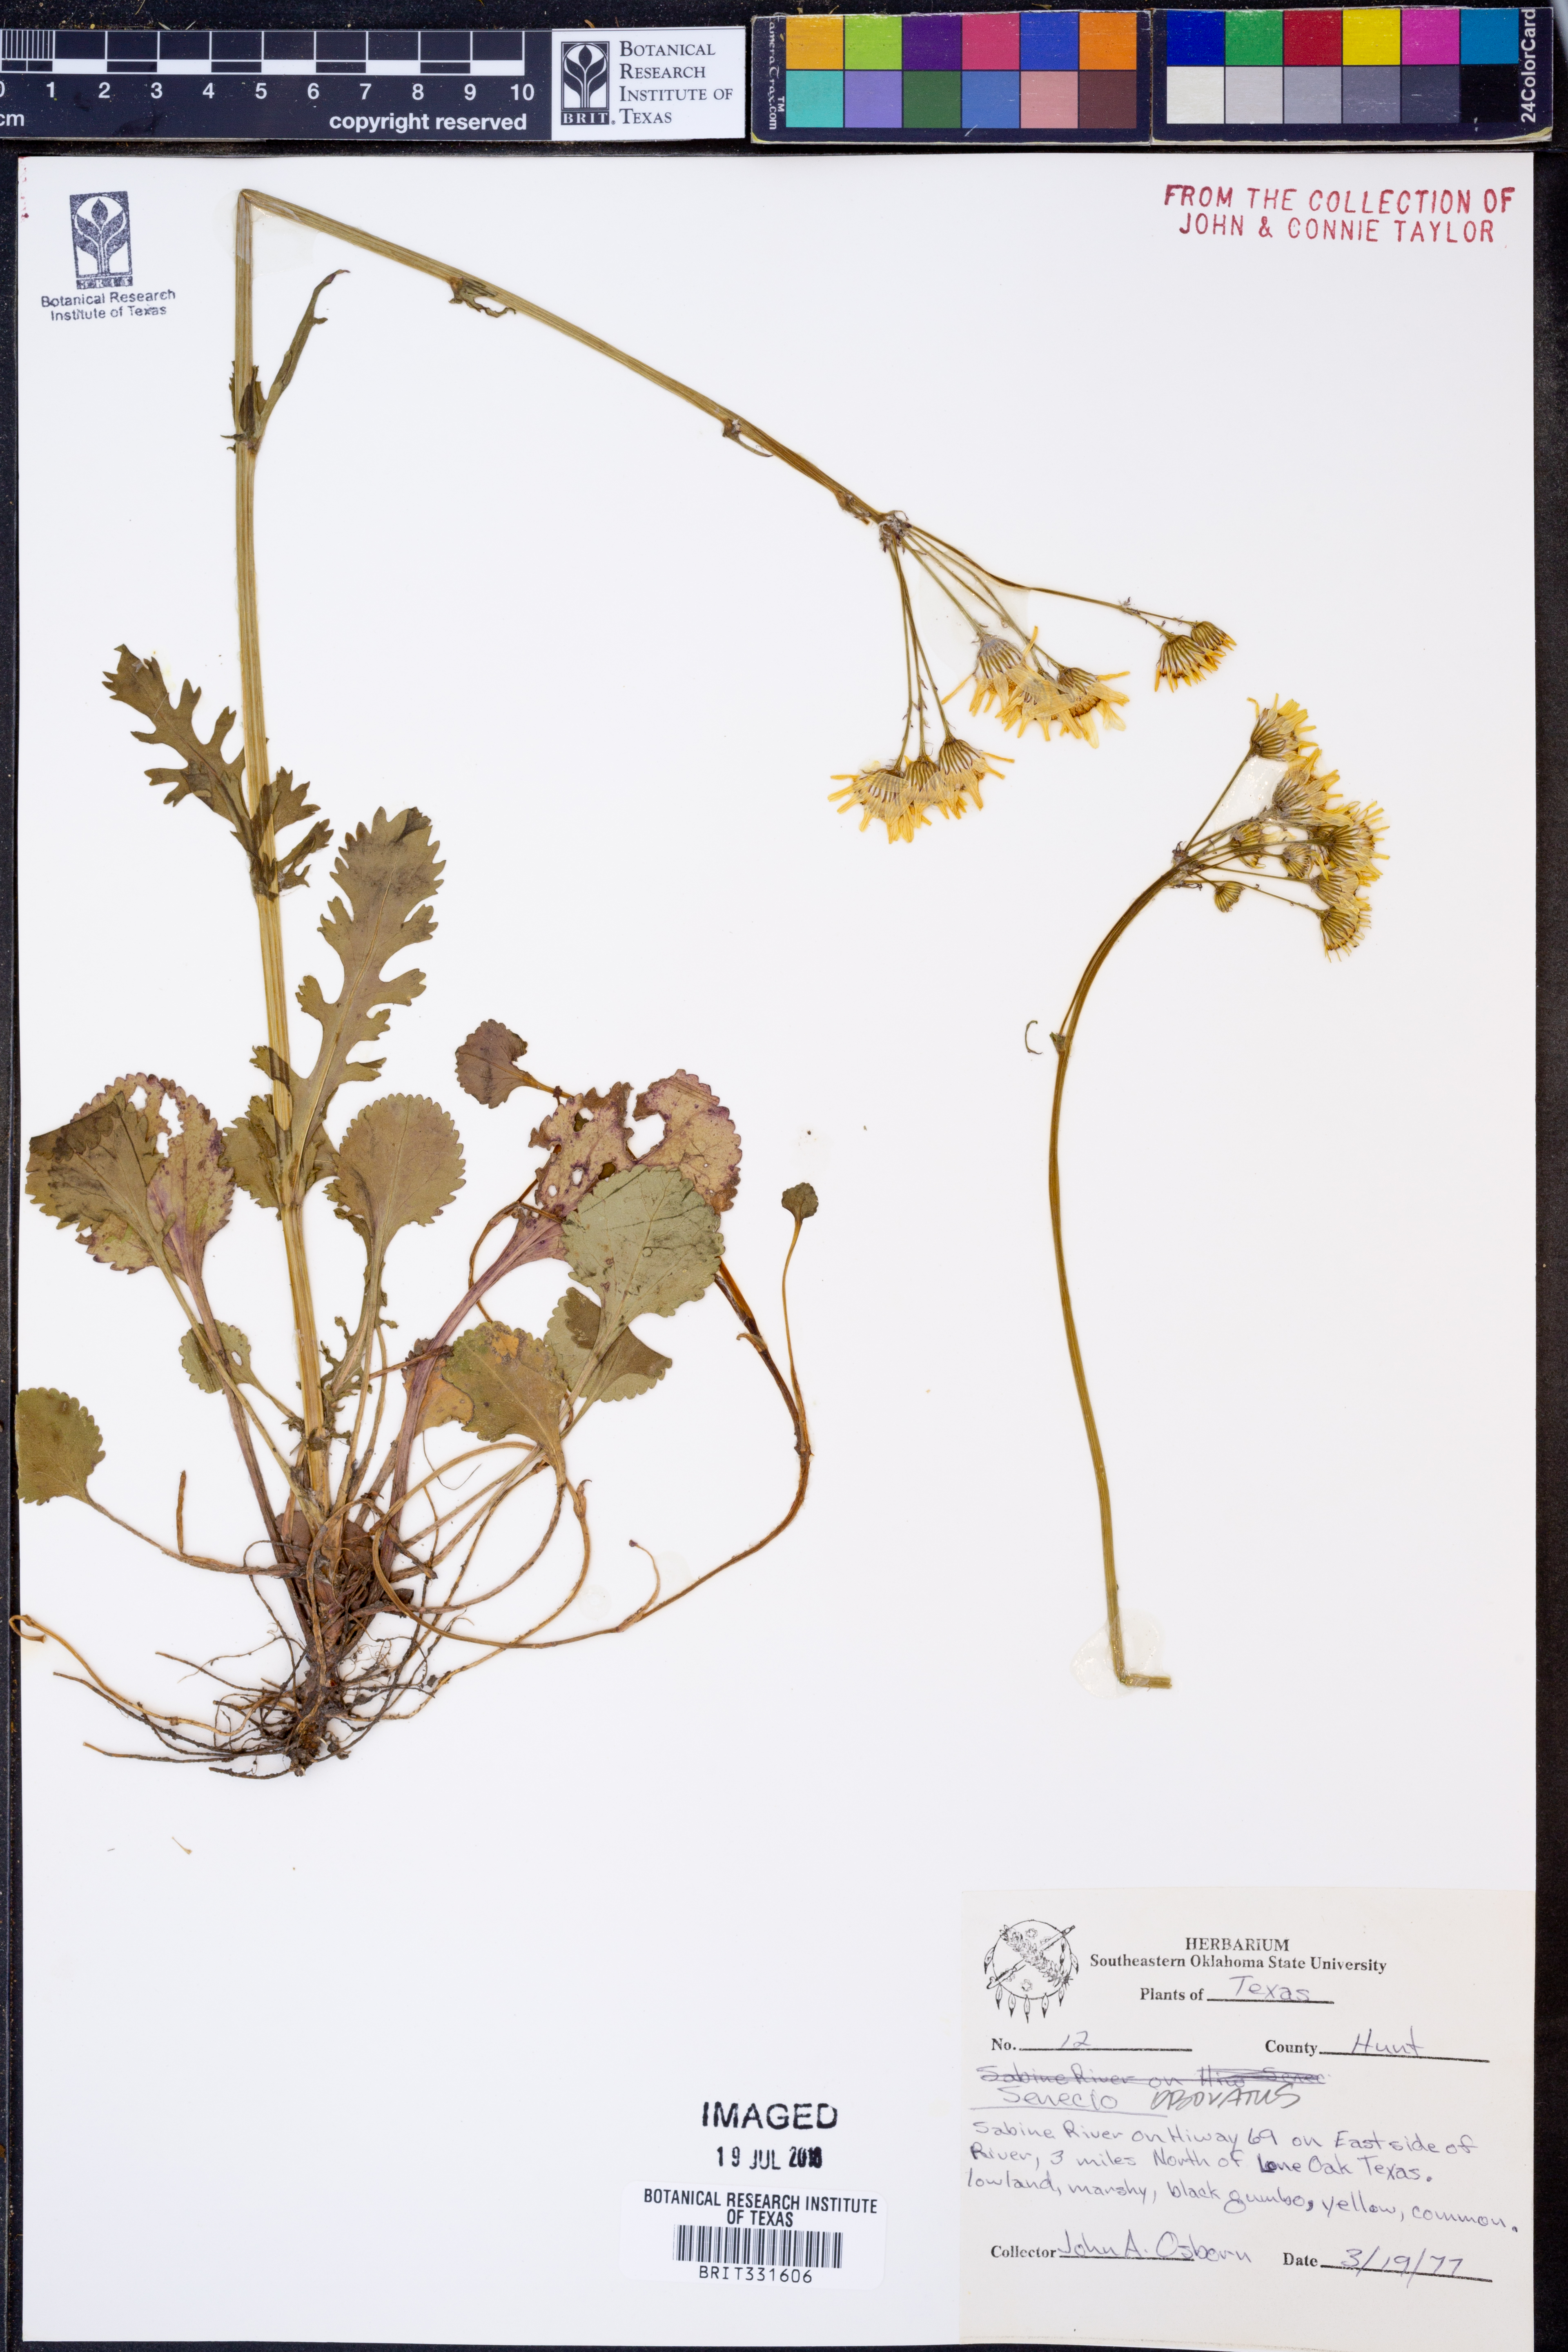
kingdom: Plantae
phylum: Tracheophyta
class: Magnoliopsida
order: Asterales
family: Asteraceae
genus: Senecio
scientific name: Senecio provincialis
